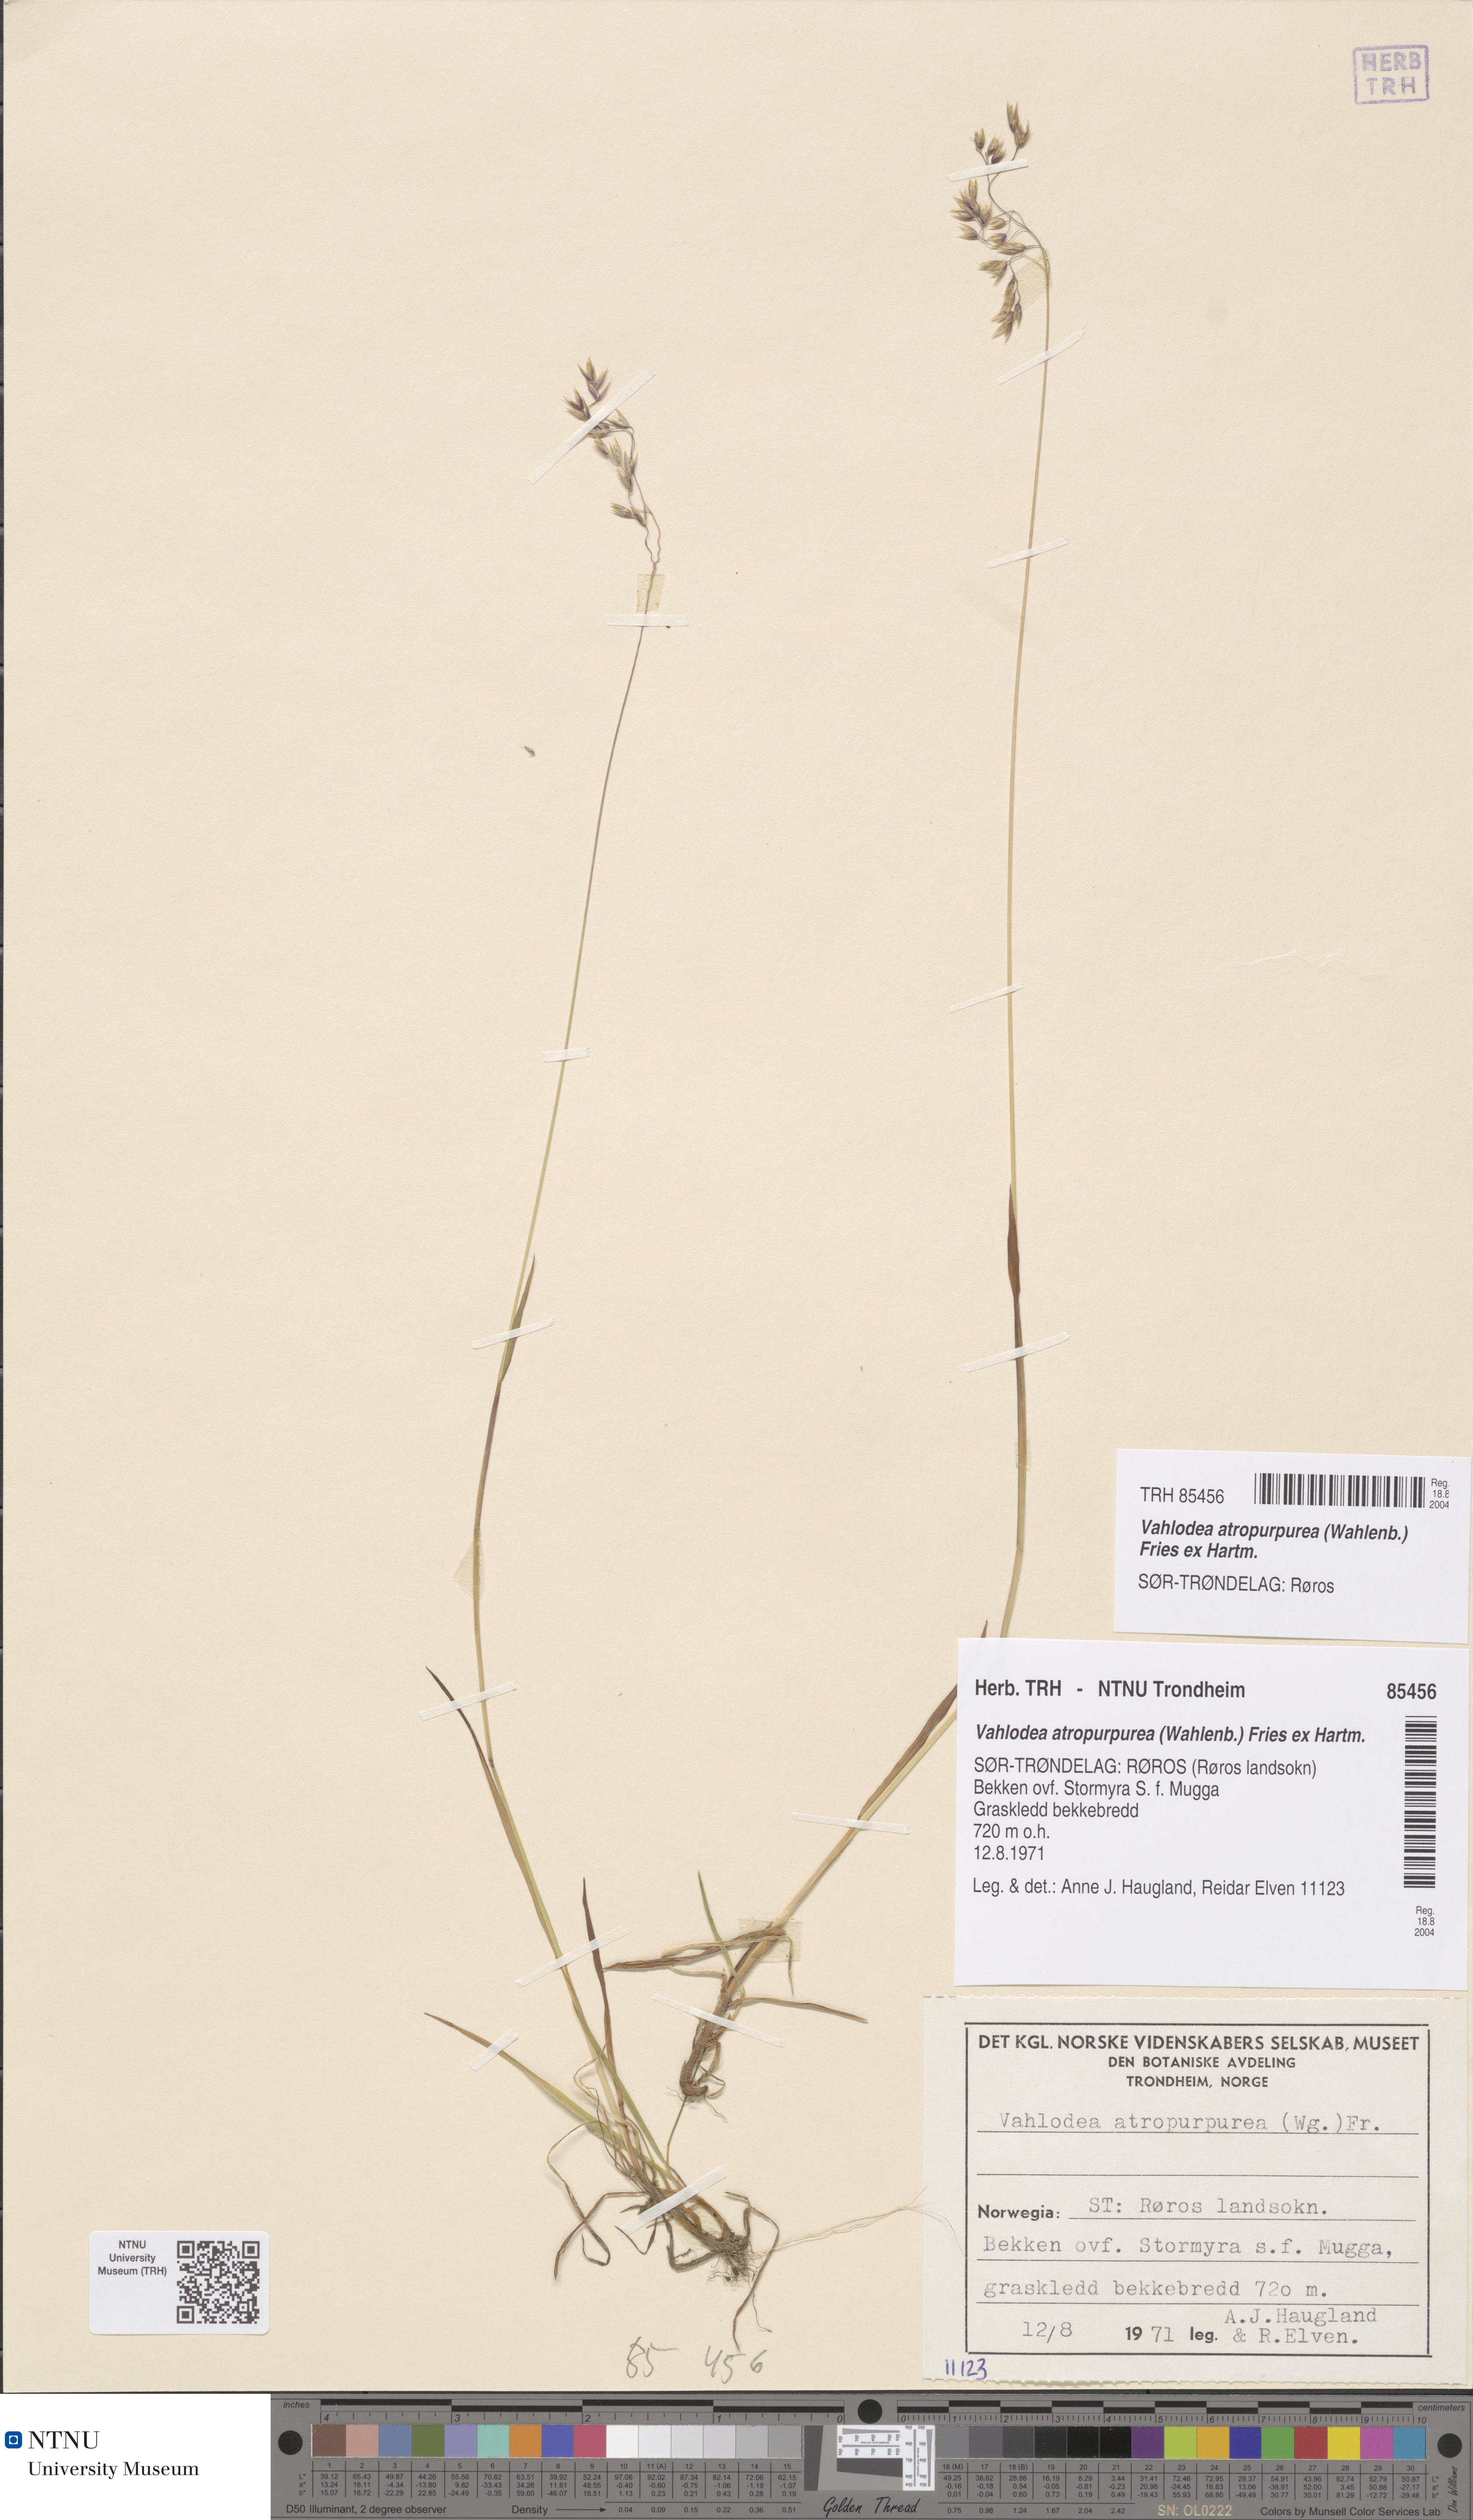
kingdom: Plantae
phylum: Tracheophyta
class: Liliopsida
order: Poales
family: Poaceae
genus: Vahlodea
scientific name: Vahlodea atropurpurea
